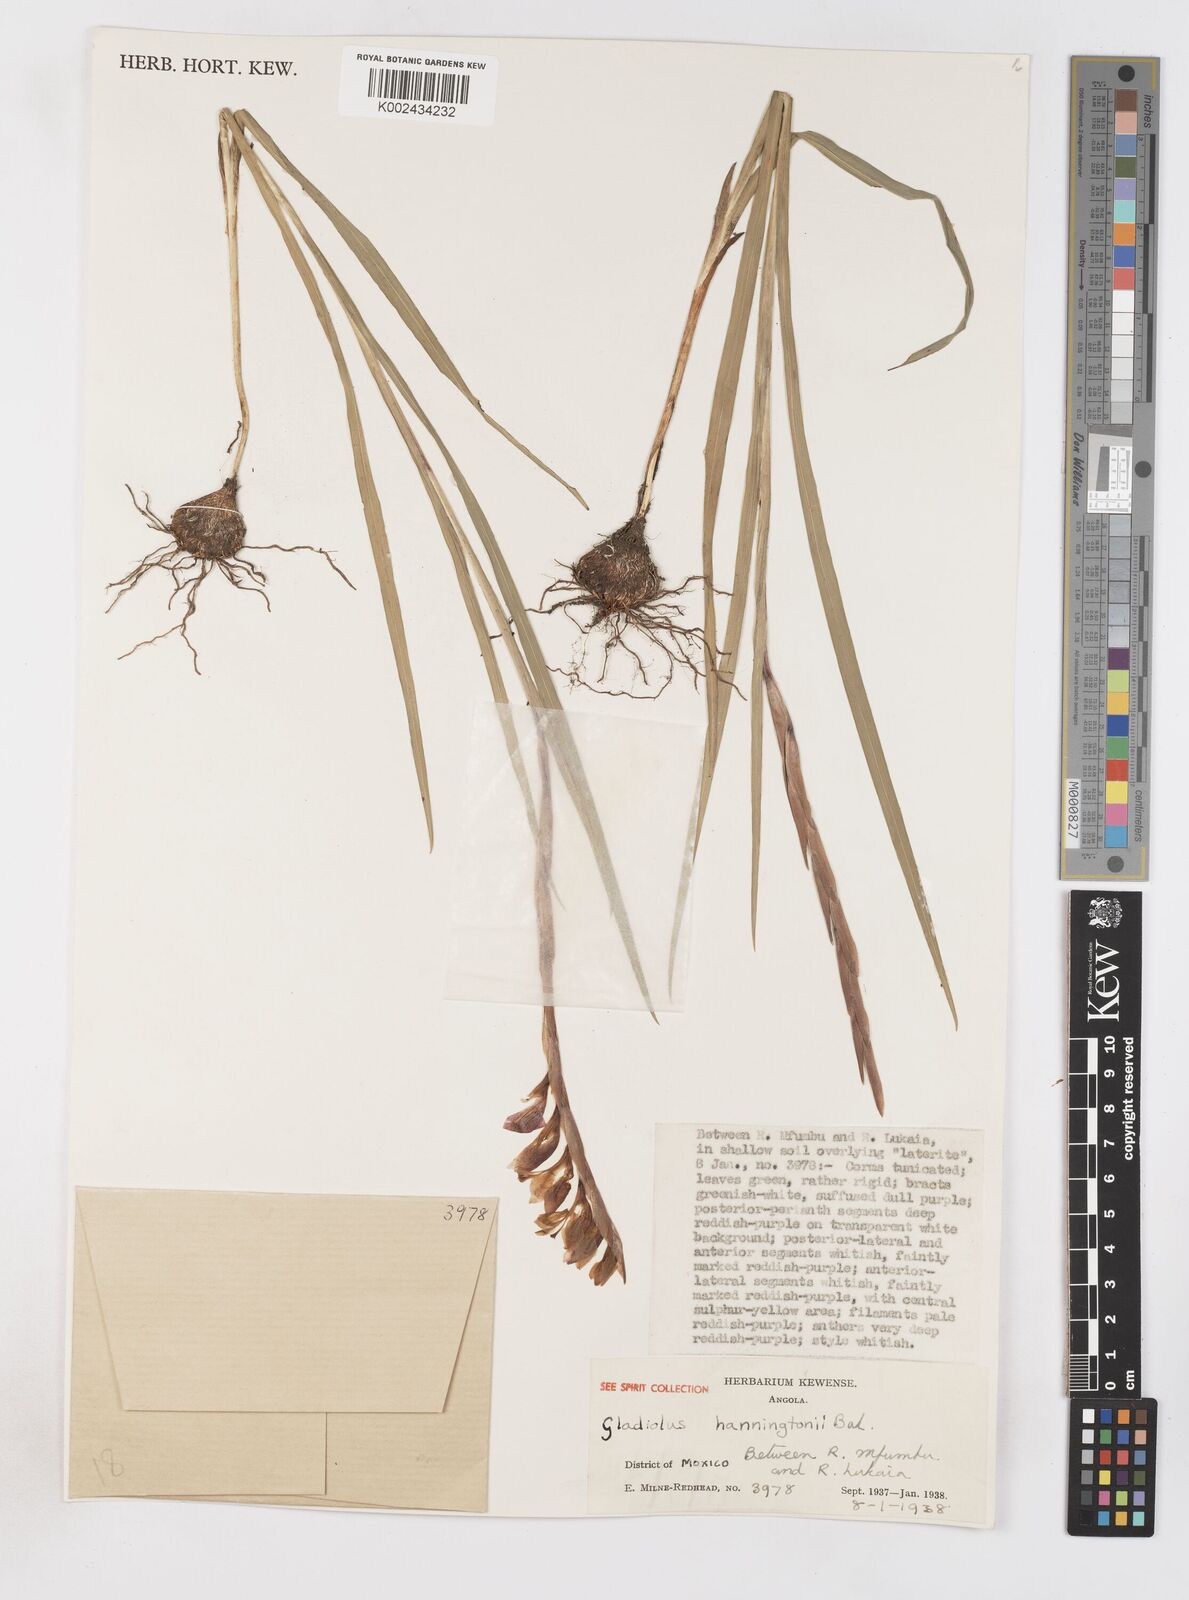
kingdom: Plantae
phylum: Tracheophyta
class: Liliopsida
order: Asparagales
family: Iridaceae
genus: Gladiolus
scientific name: Gladiolus gregarius
